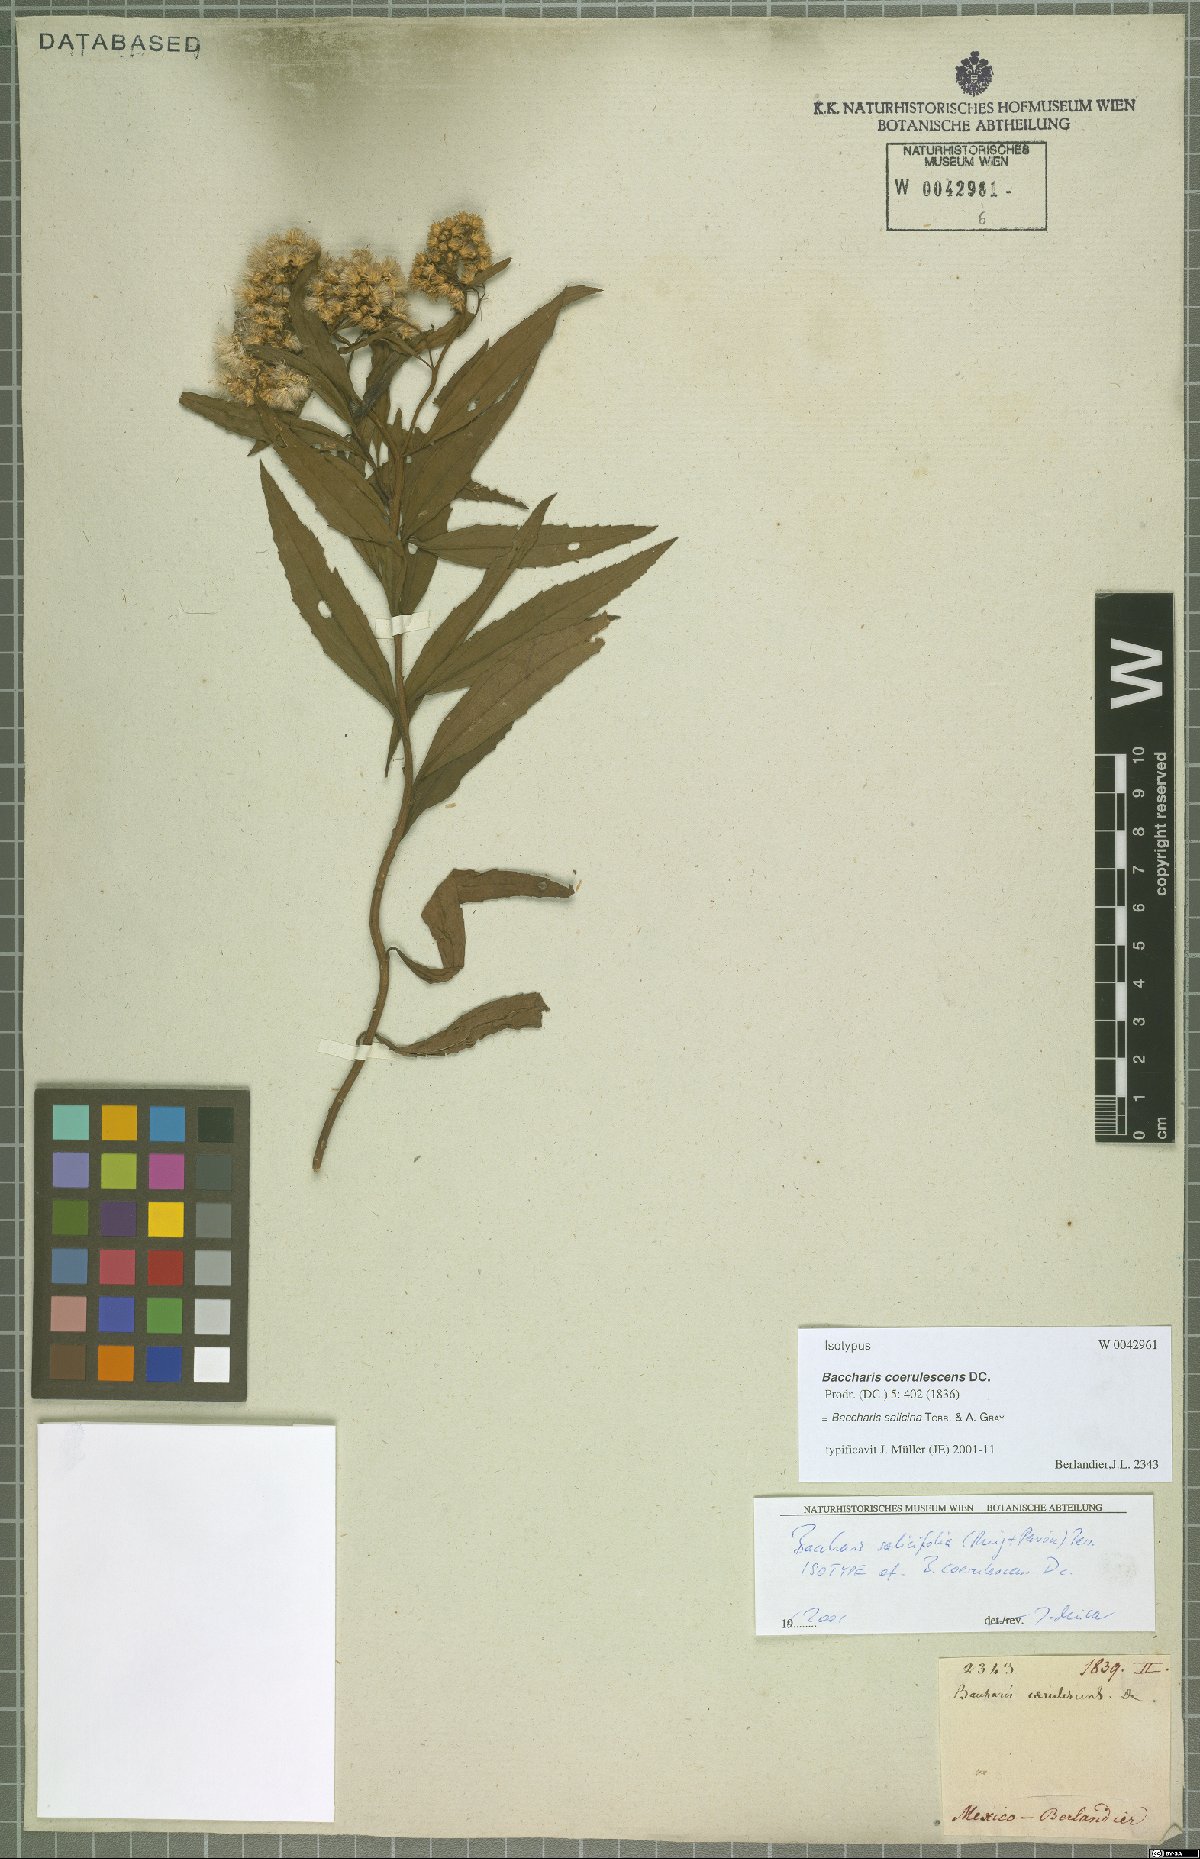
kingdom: Plantae
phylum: Tracheophyta
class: Magnoliopsida
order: Asterales
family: Asteraceae
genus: Baccharis
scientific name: Baccharis salicina
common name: Willow baccharis
